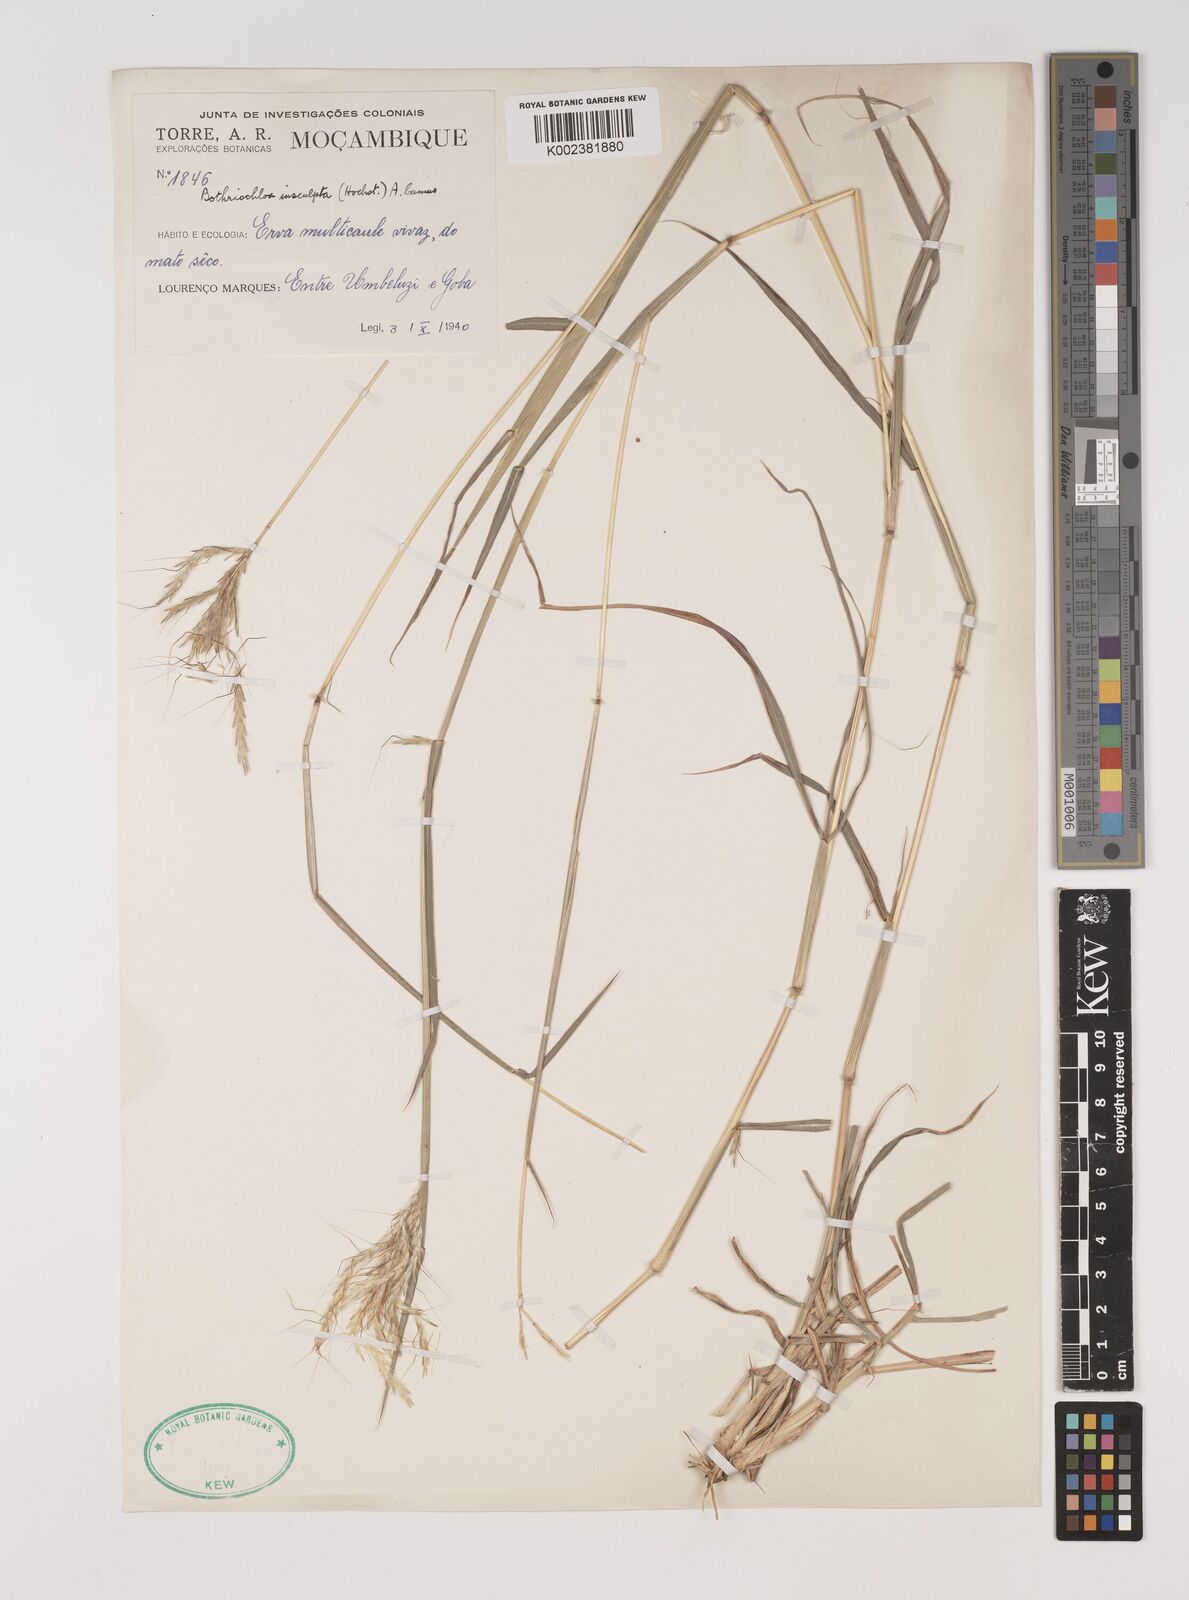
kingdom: Plantae
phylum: Tracheophyta
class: Liliopsida
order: Poales
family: Poaceae
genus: Bothriochloa
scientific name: Bothriochloa insculpta
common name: Creeping-bluegrass
